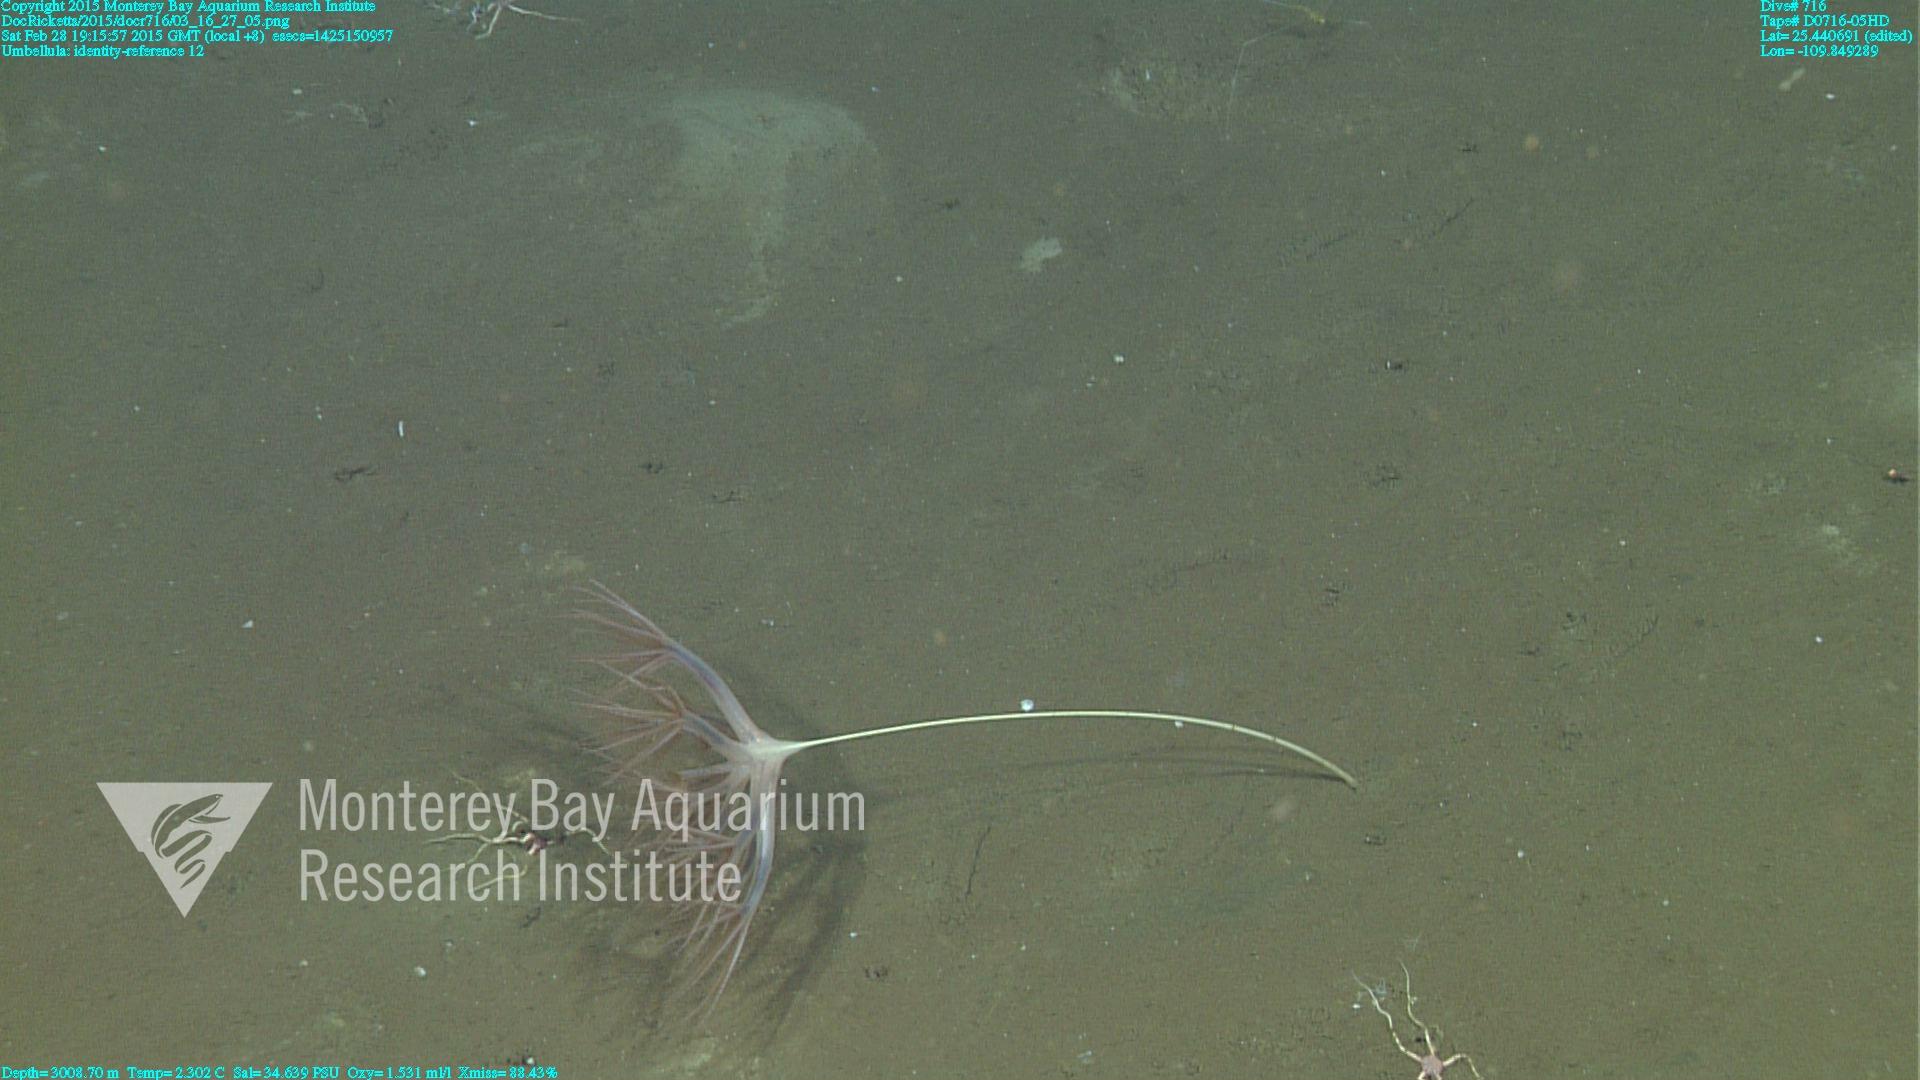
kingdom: Animalia
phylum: Cnidaria
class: Anthozoa
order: Scleralcyonacea
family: Umbellulidae
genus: Umbellula
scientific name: Umbellula
